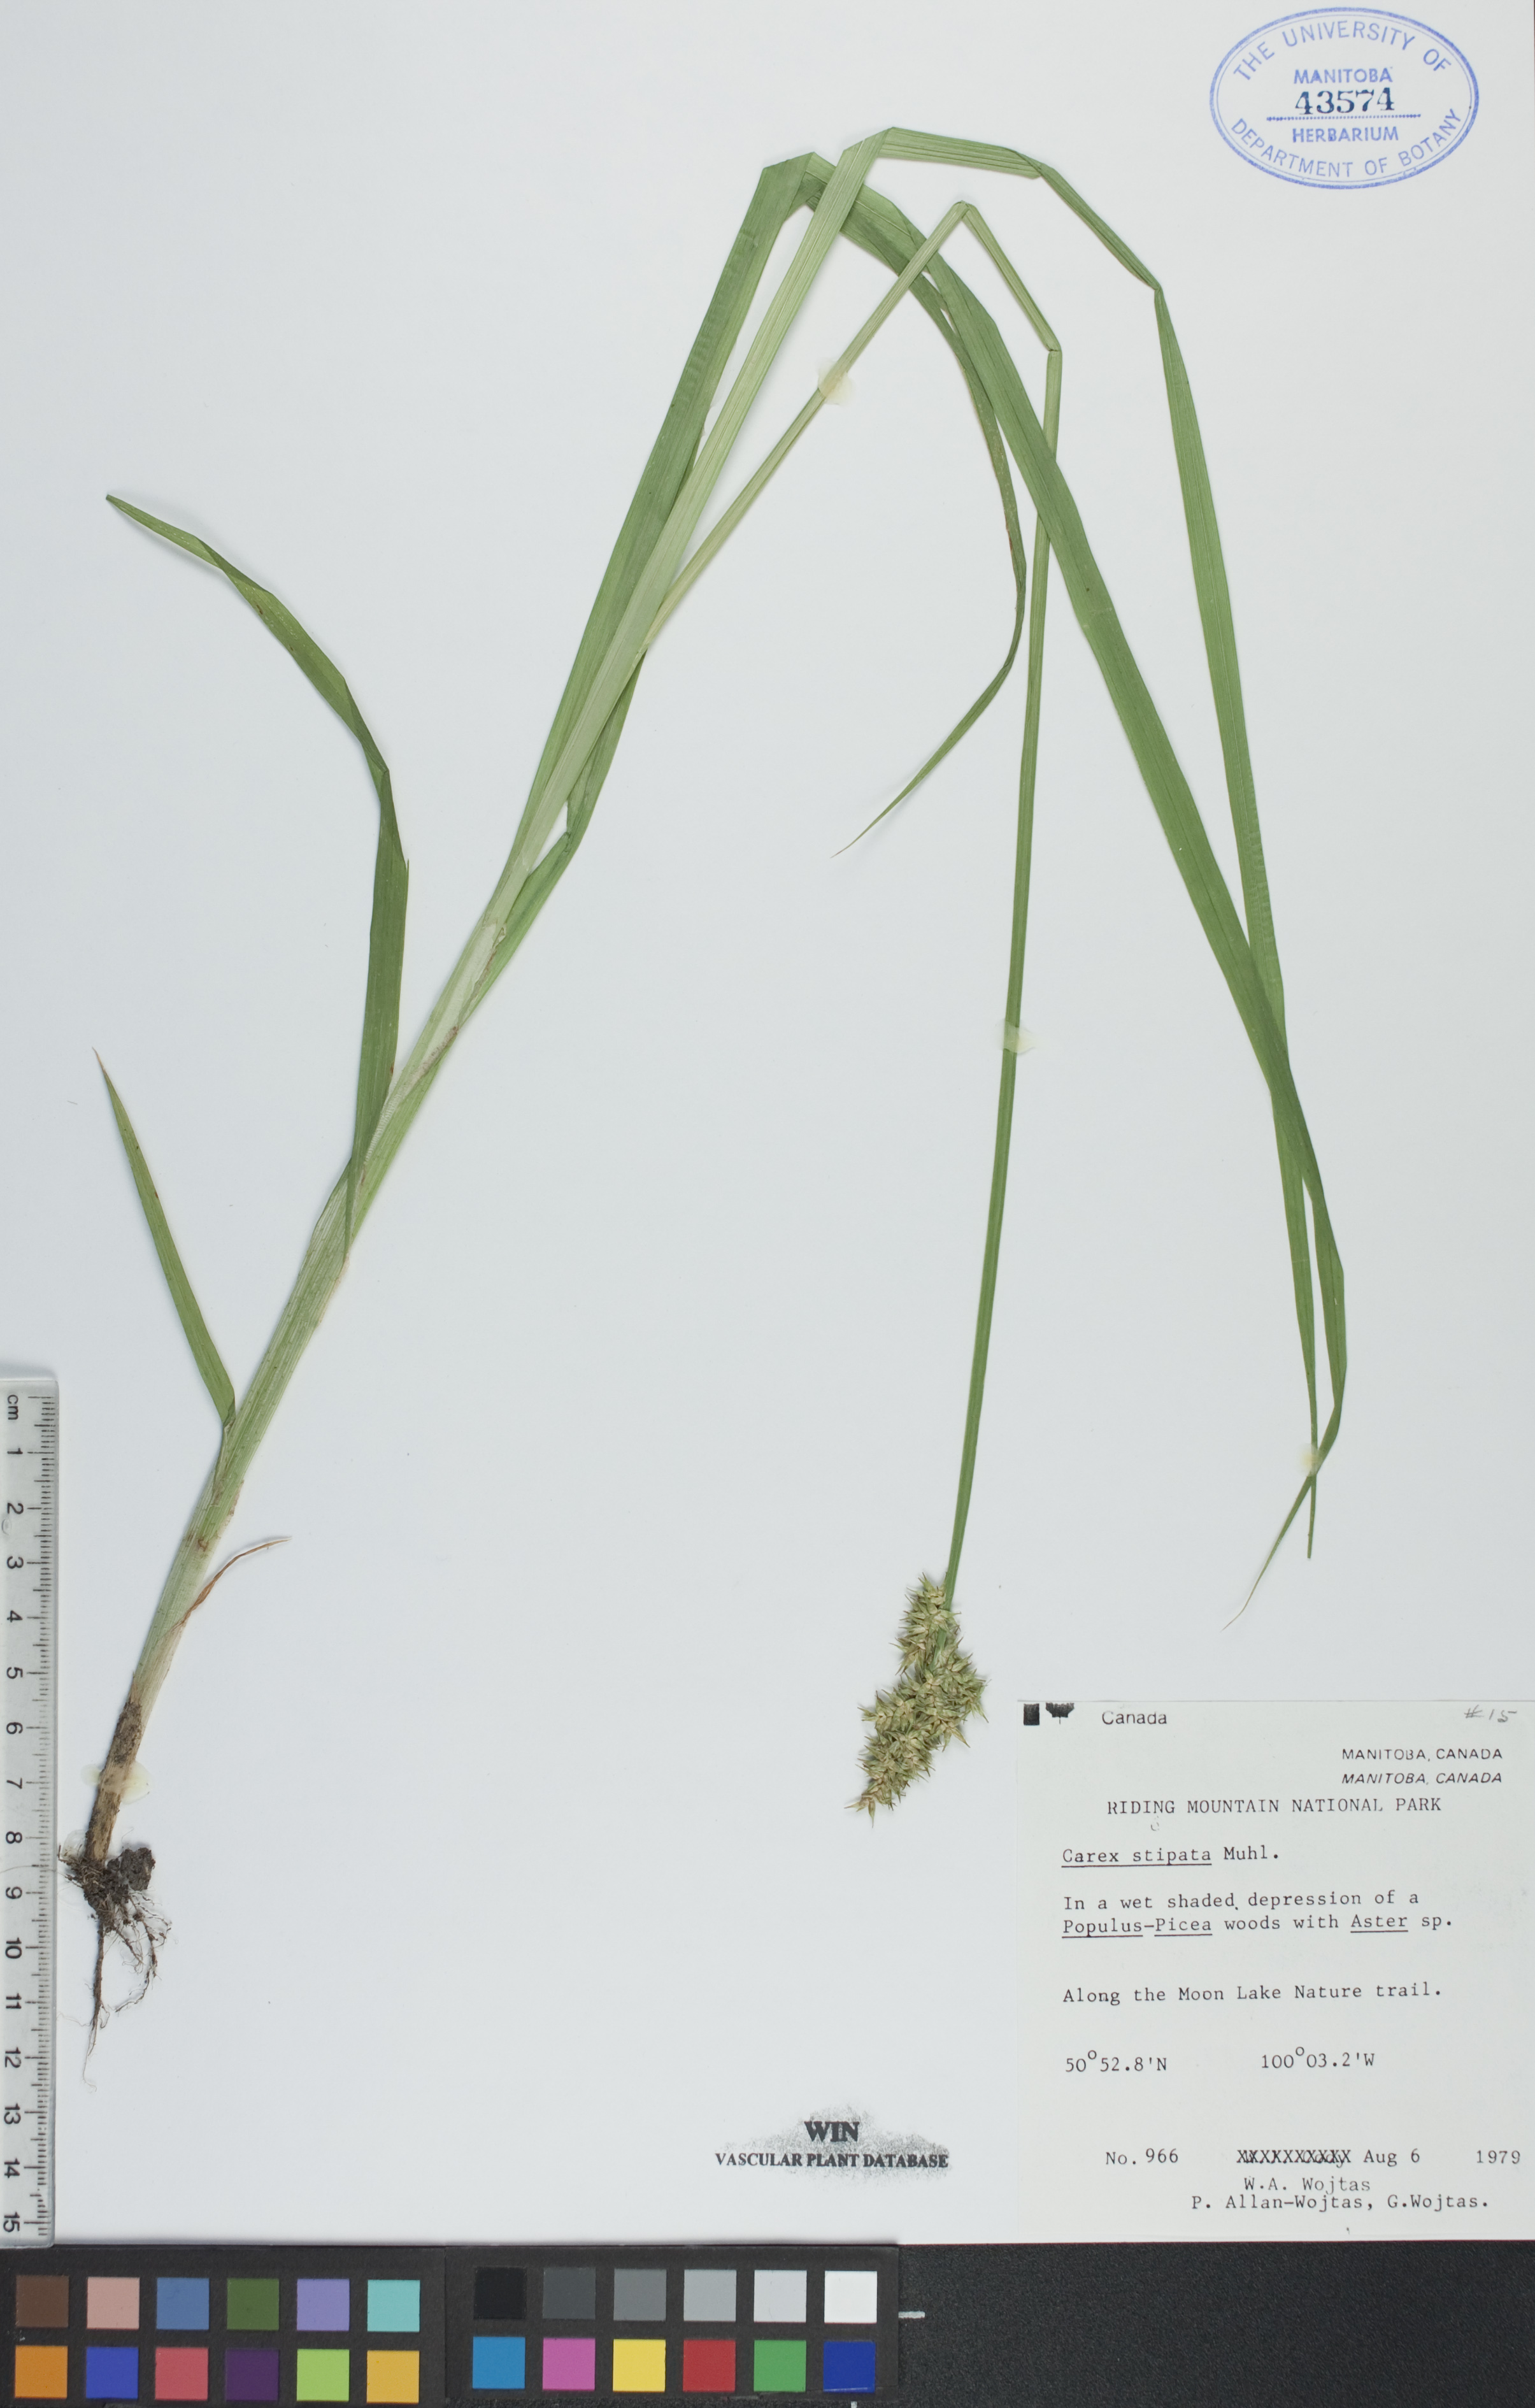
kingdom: Plantae
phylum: Tracheophyta
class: Liliopsida
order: Poales
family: Cyperaceae
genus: Carex
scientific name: Carex stipata
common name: Awl-fruited sedge
